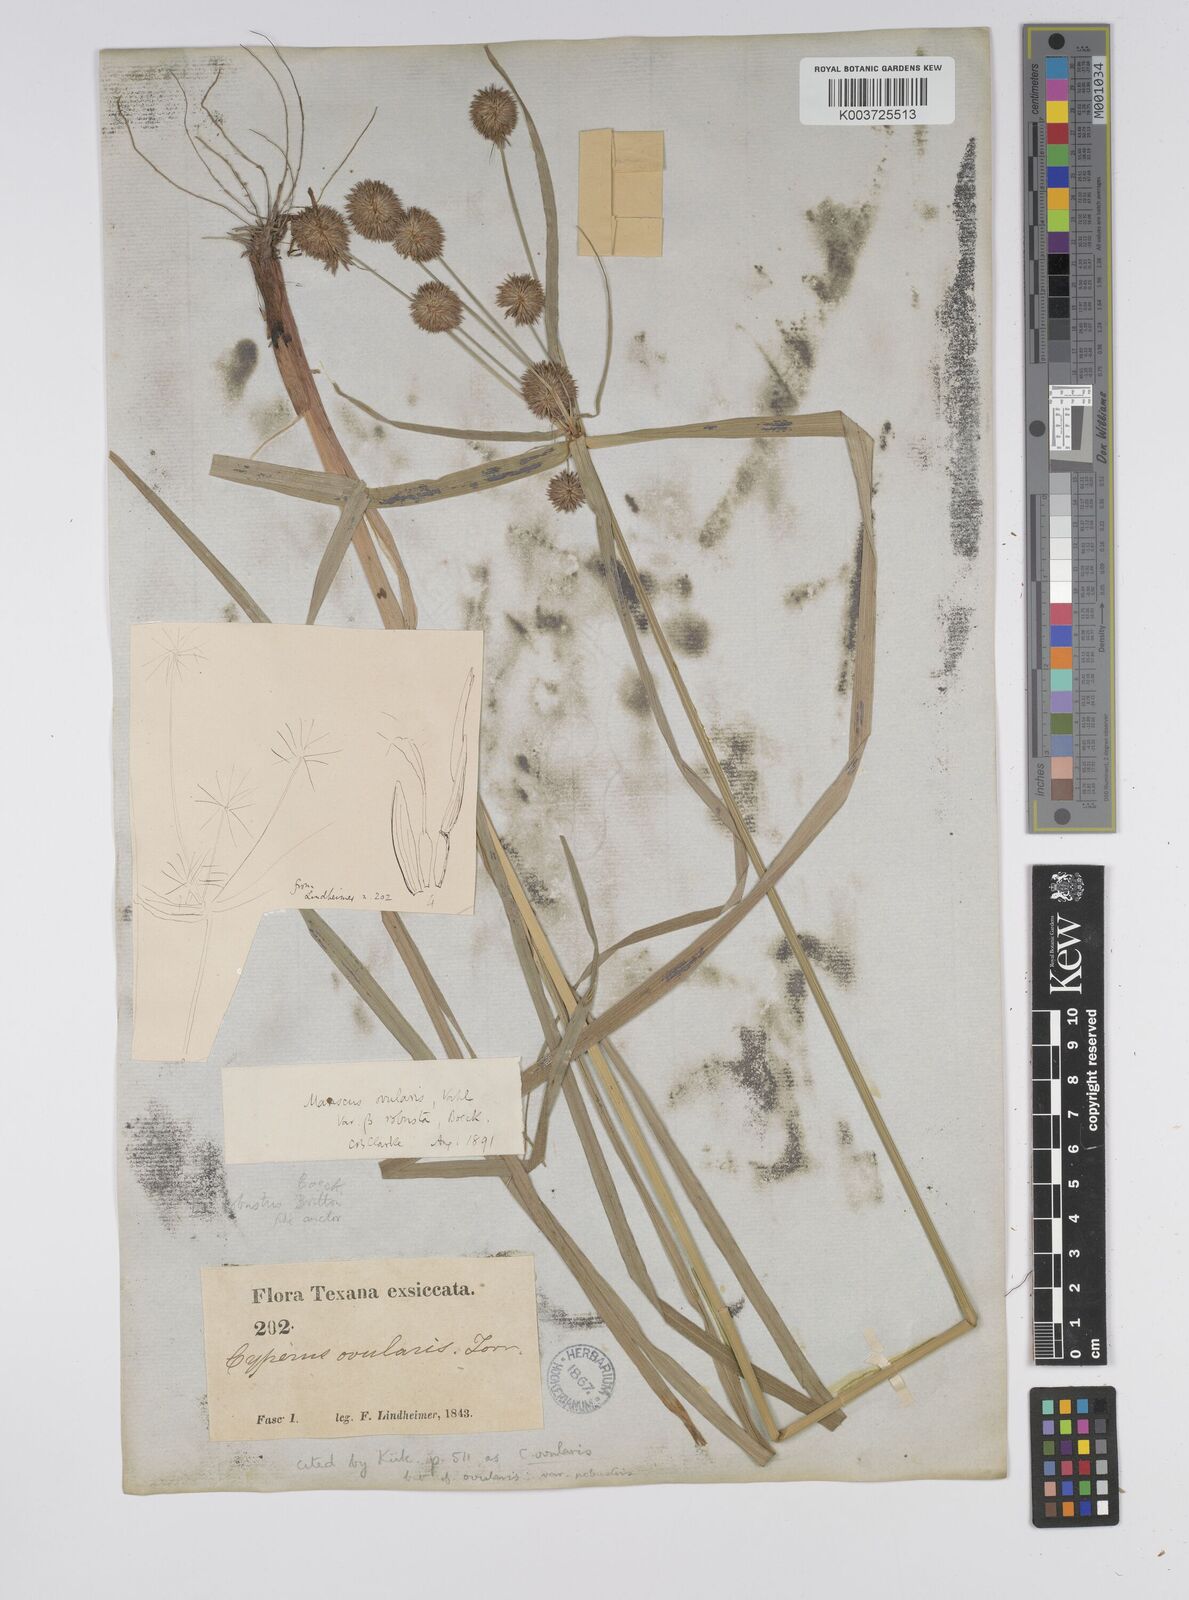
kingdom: Plantae
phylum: Tracheophyta
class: Liliopsida
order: Poales
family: Cyperaceae
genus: Cyperus
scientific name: Cyperus echinatus
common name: Teasel sedge
